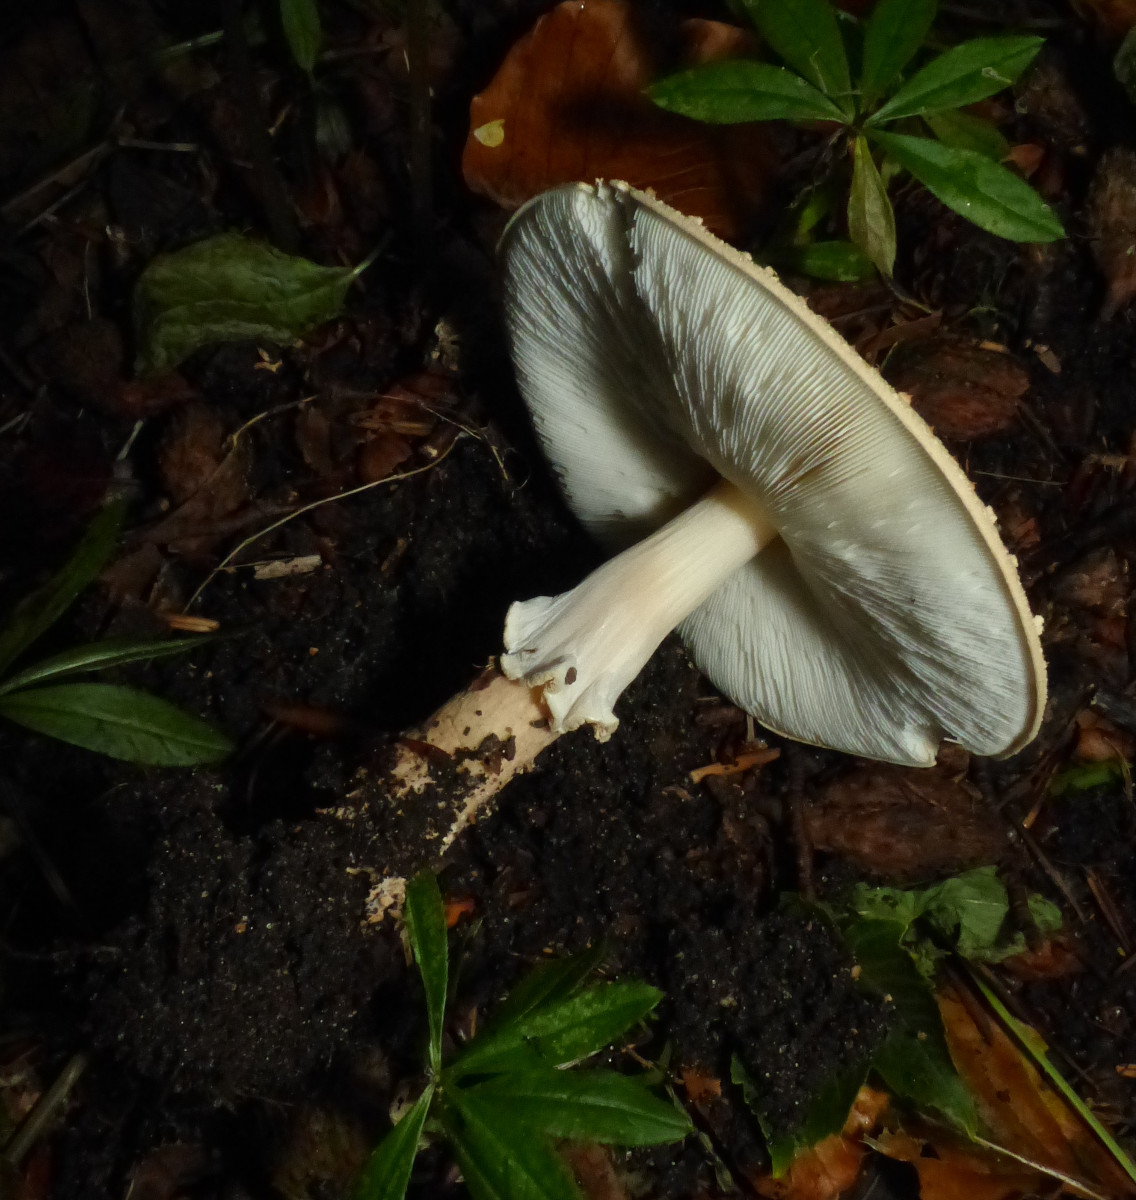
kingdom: Fungi
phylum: Basidiomycota
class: Agaricomycetes
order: Agaricales
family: Agaricaceae
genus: Echinoderma
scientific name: Echinoderma asperum
